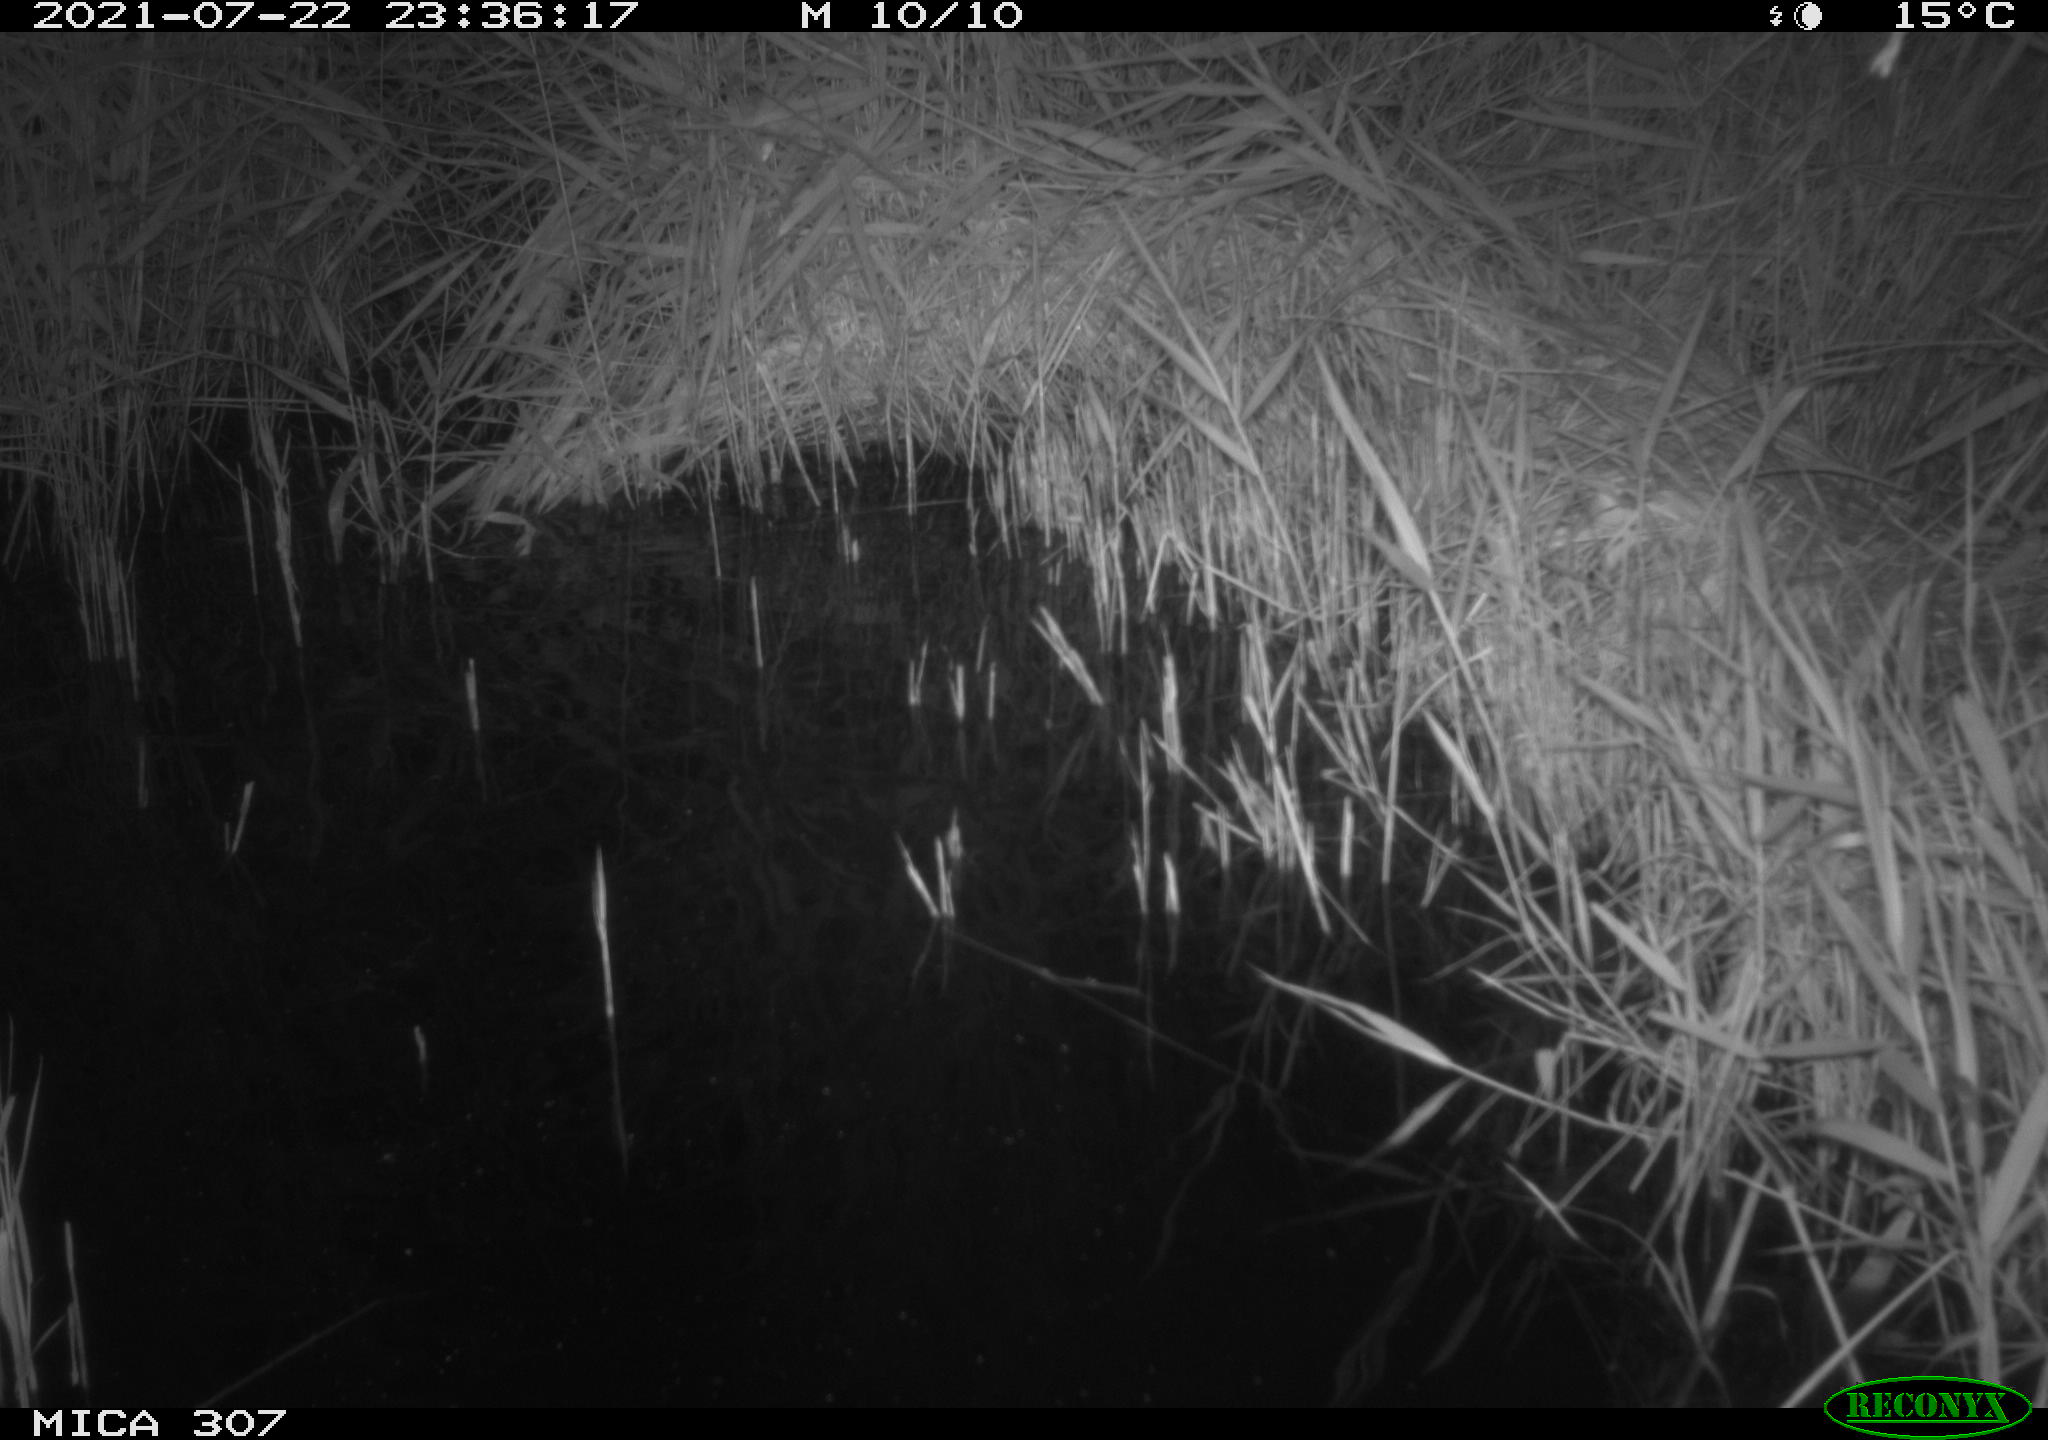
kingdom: Animalia
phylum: Chordata
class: Mammalia
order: Rodentia
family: Muridae
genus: Rattus
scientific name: Rattus norvegicus
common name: Brown rat
